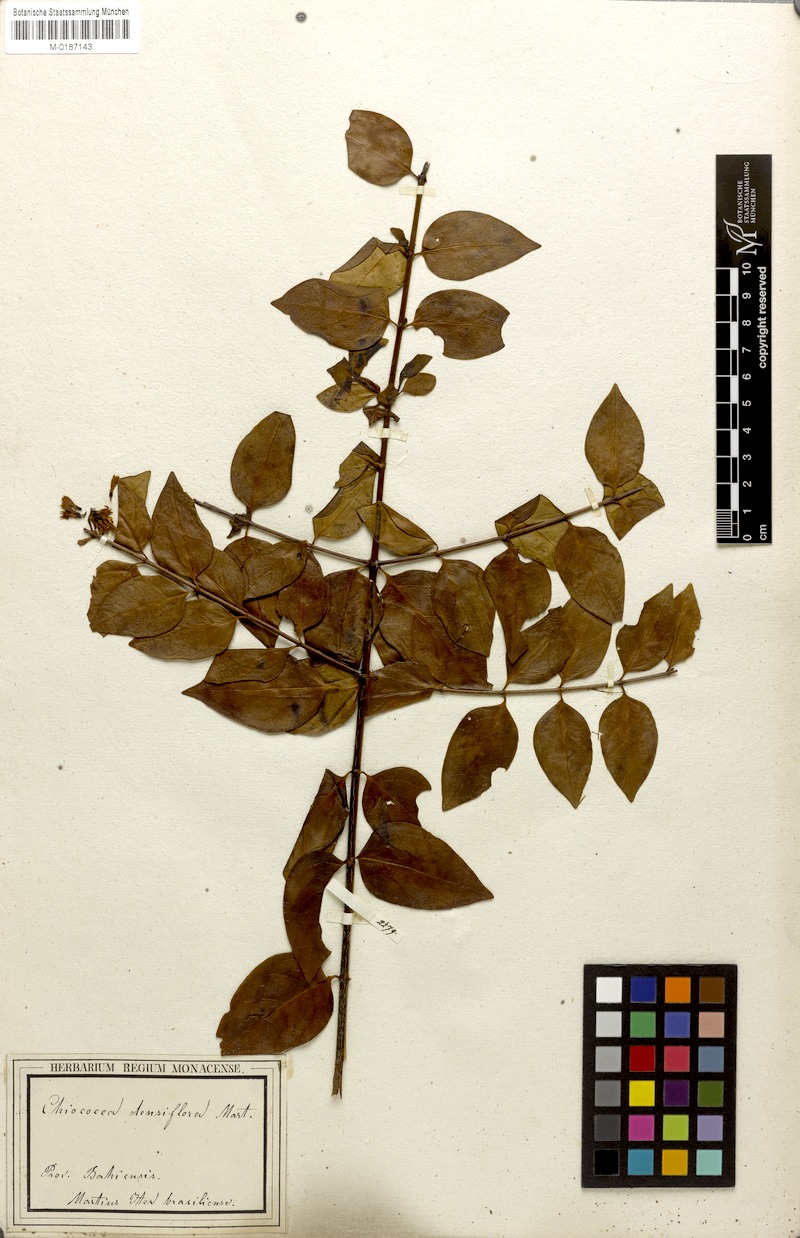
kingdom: Plantae
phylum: Tracheophyta
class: Magnoliopsida
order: Gentianales
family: Rubiaceae
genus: Chiococca
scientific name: Chiococca alba
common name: Snowberry
